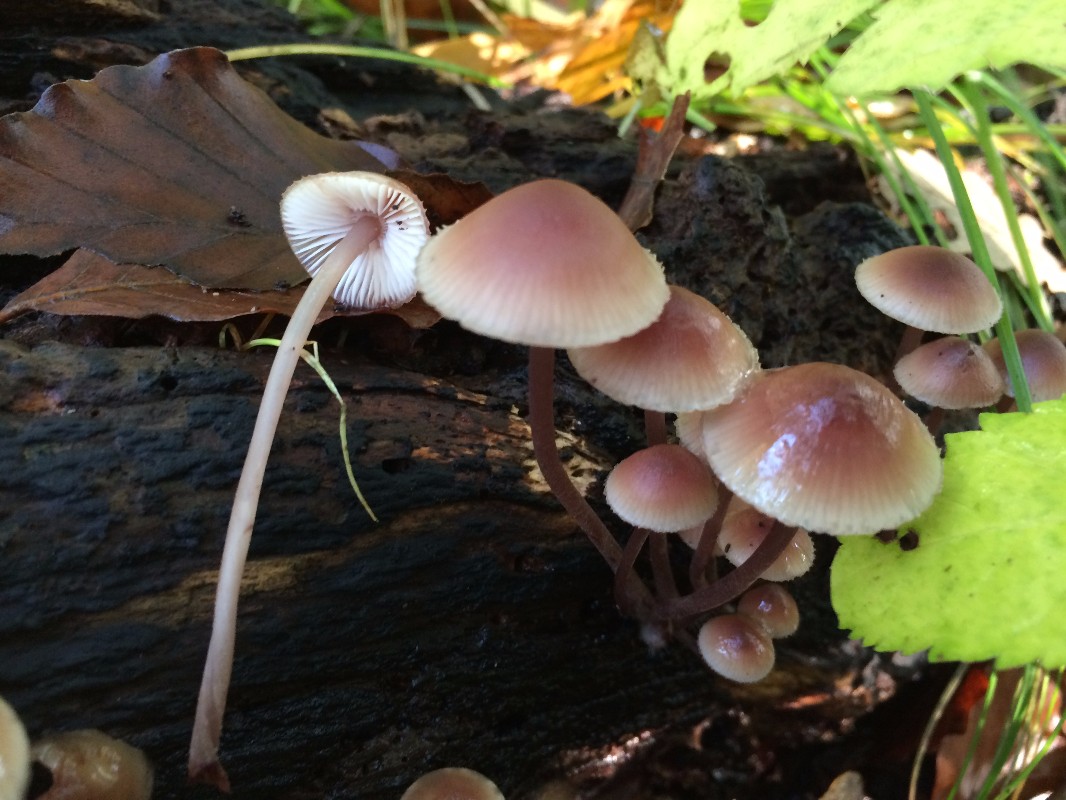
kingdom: Fungi
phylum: Basidiomycota
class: Agaricomycetes
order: Agaricales
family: Mycenaceae
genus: Mycena
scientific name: Mycena haematopus
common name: blødende huesvamp
